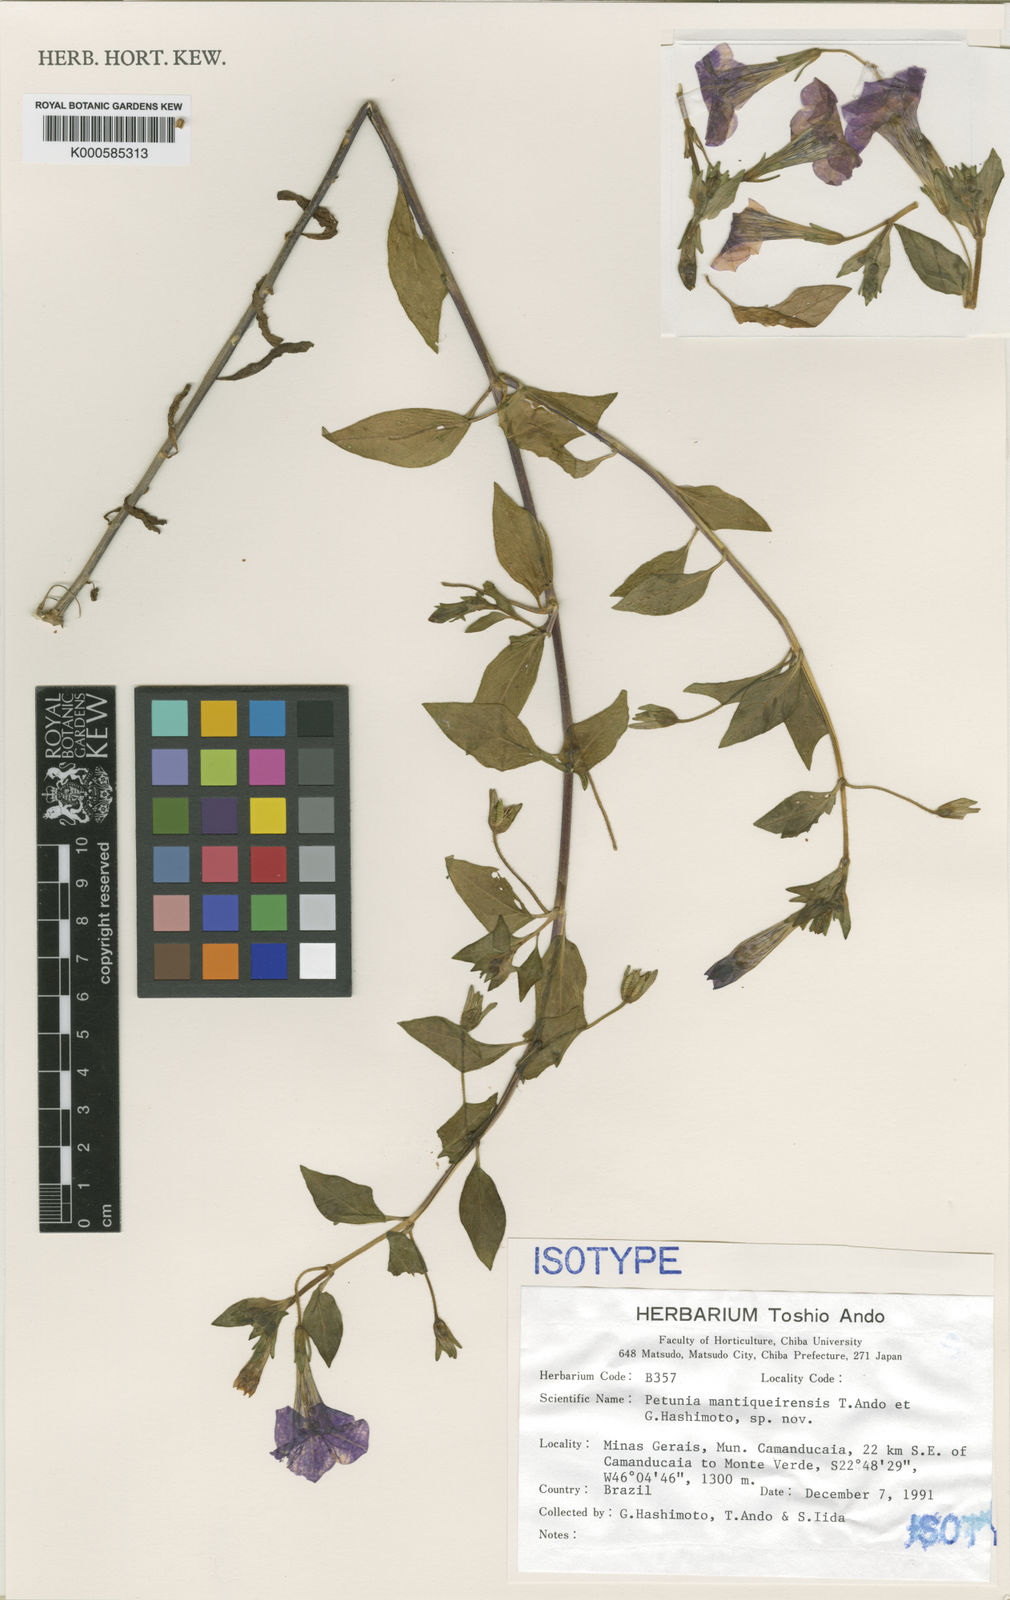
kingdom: Plantae
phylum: Tracheophyta
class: Magnoliopsida
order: Solanales
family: Solanaceae
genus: Petunia
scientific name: Petunia mantiqueirensis
